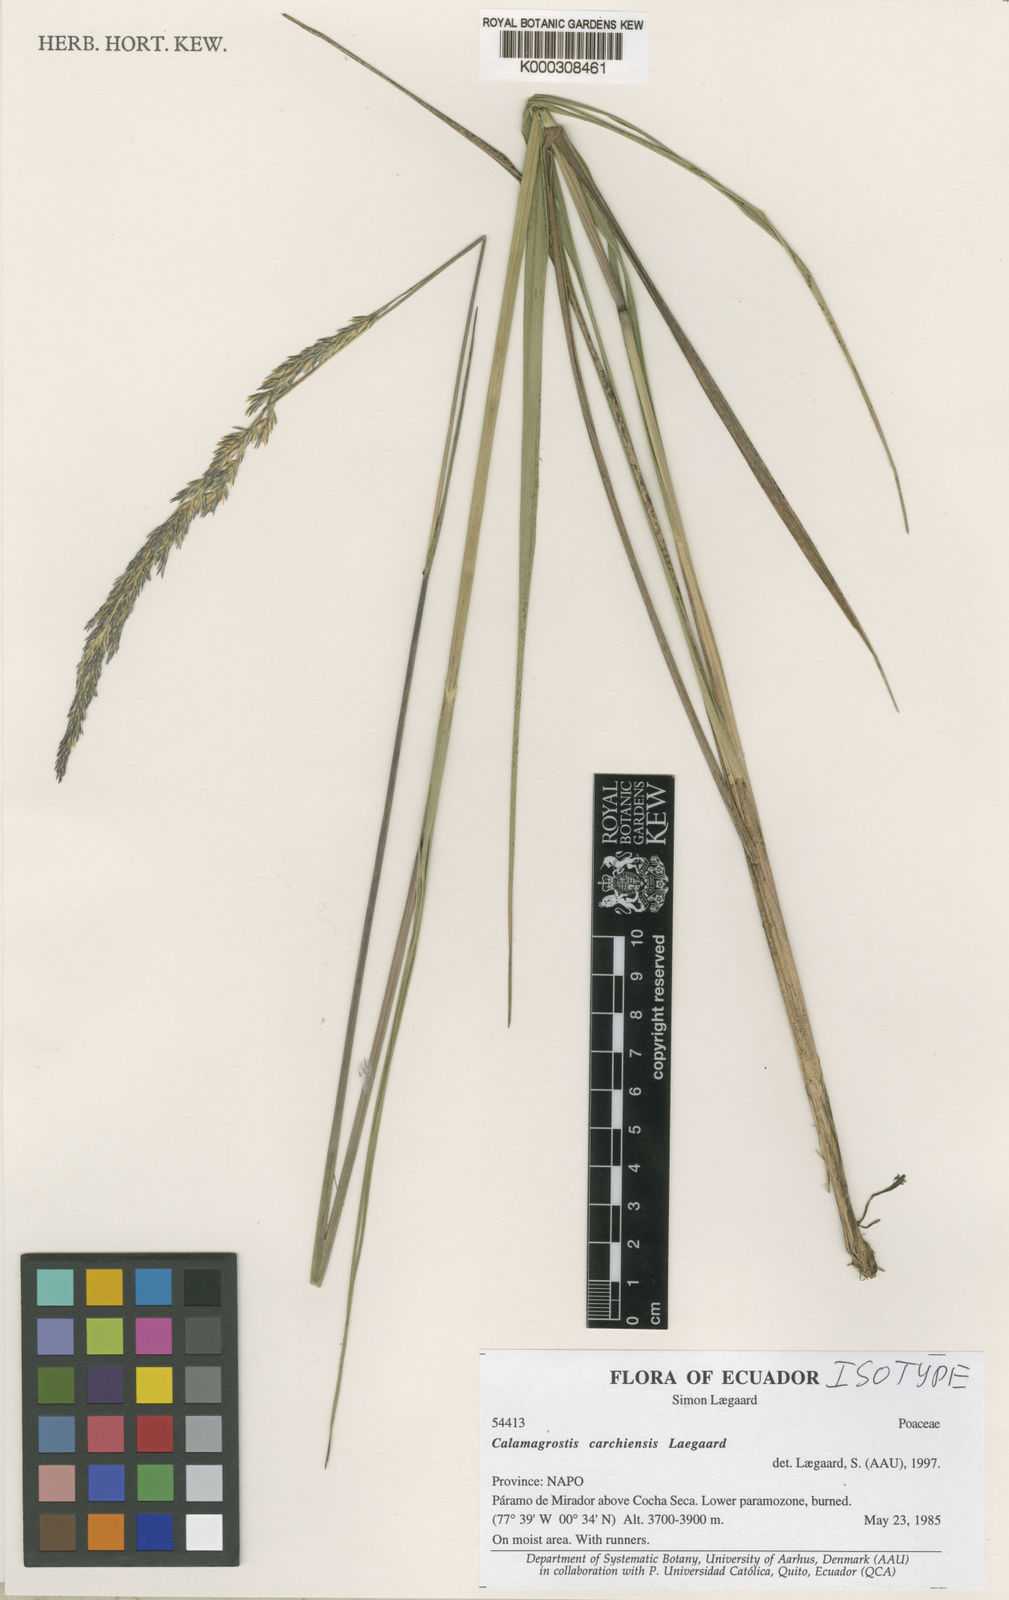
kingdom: Plantae
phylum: Tracheophyta
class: Liliopsida
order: Poales
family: Poaceae
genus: Calamagrostis
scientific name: Calamagrostis carchiensis
